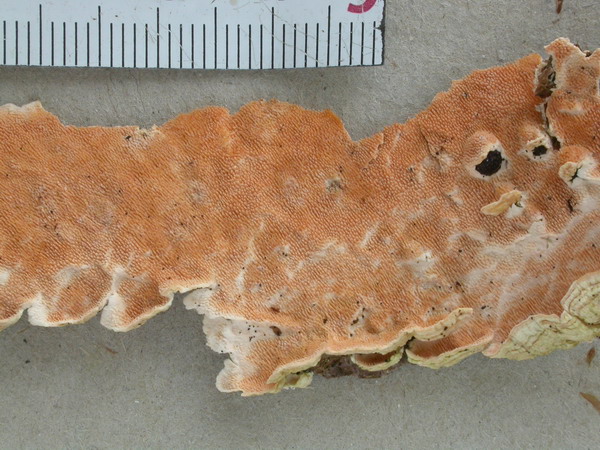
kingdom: Fungi
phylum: Basidiomycota
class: Agaricomycetes
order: Polyporales
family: Steccherinaceae
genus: Steccherinum
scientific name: Steccherinum ochraceum
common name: almindelig skønpig
